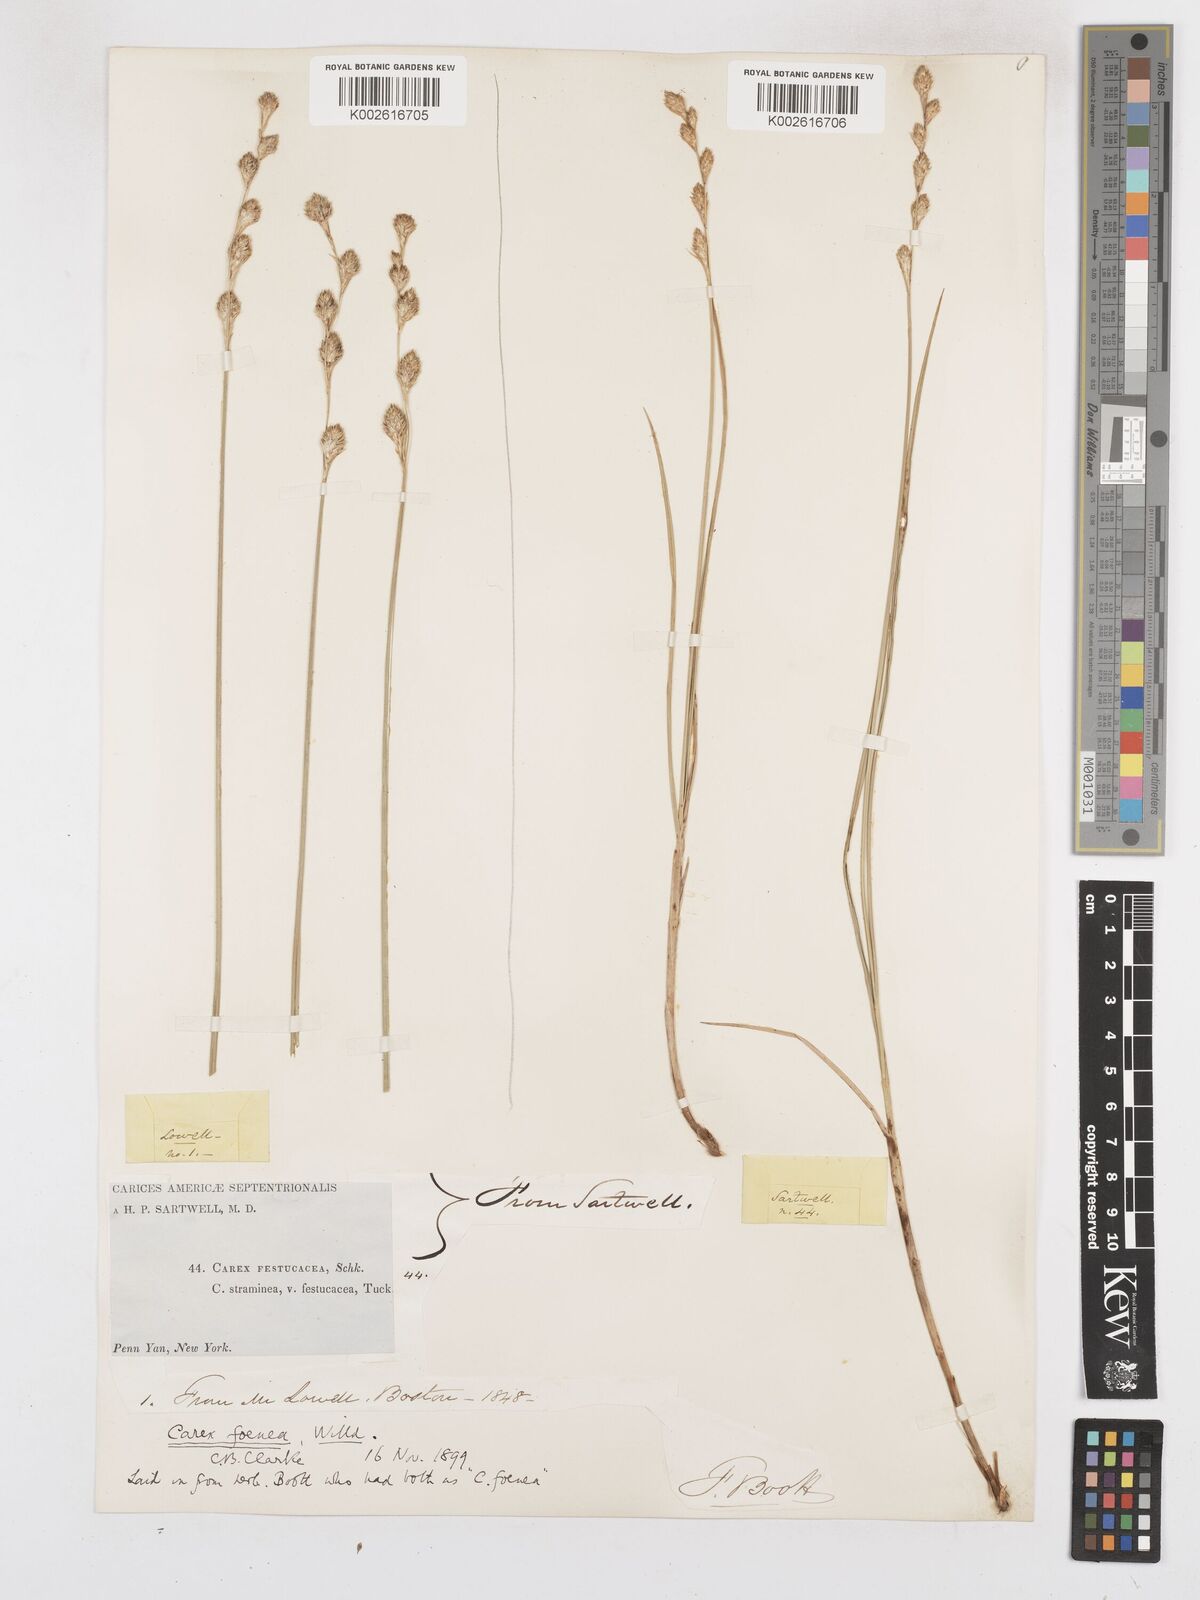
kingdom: Plantae
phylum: Tracheophyta
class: Liliopsida
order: Poales
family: Cyperaceae
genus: Carex
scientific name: Carex argyrantha
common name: Silvery-flowered sedge
